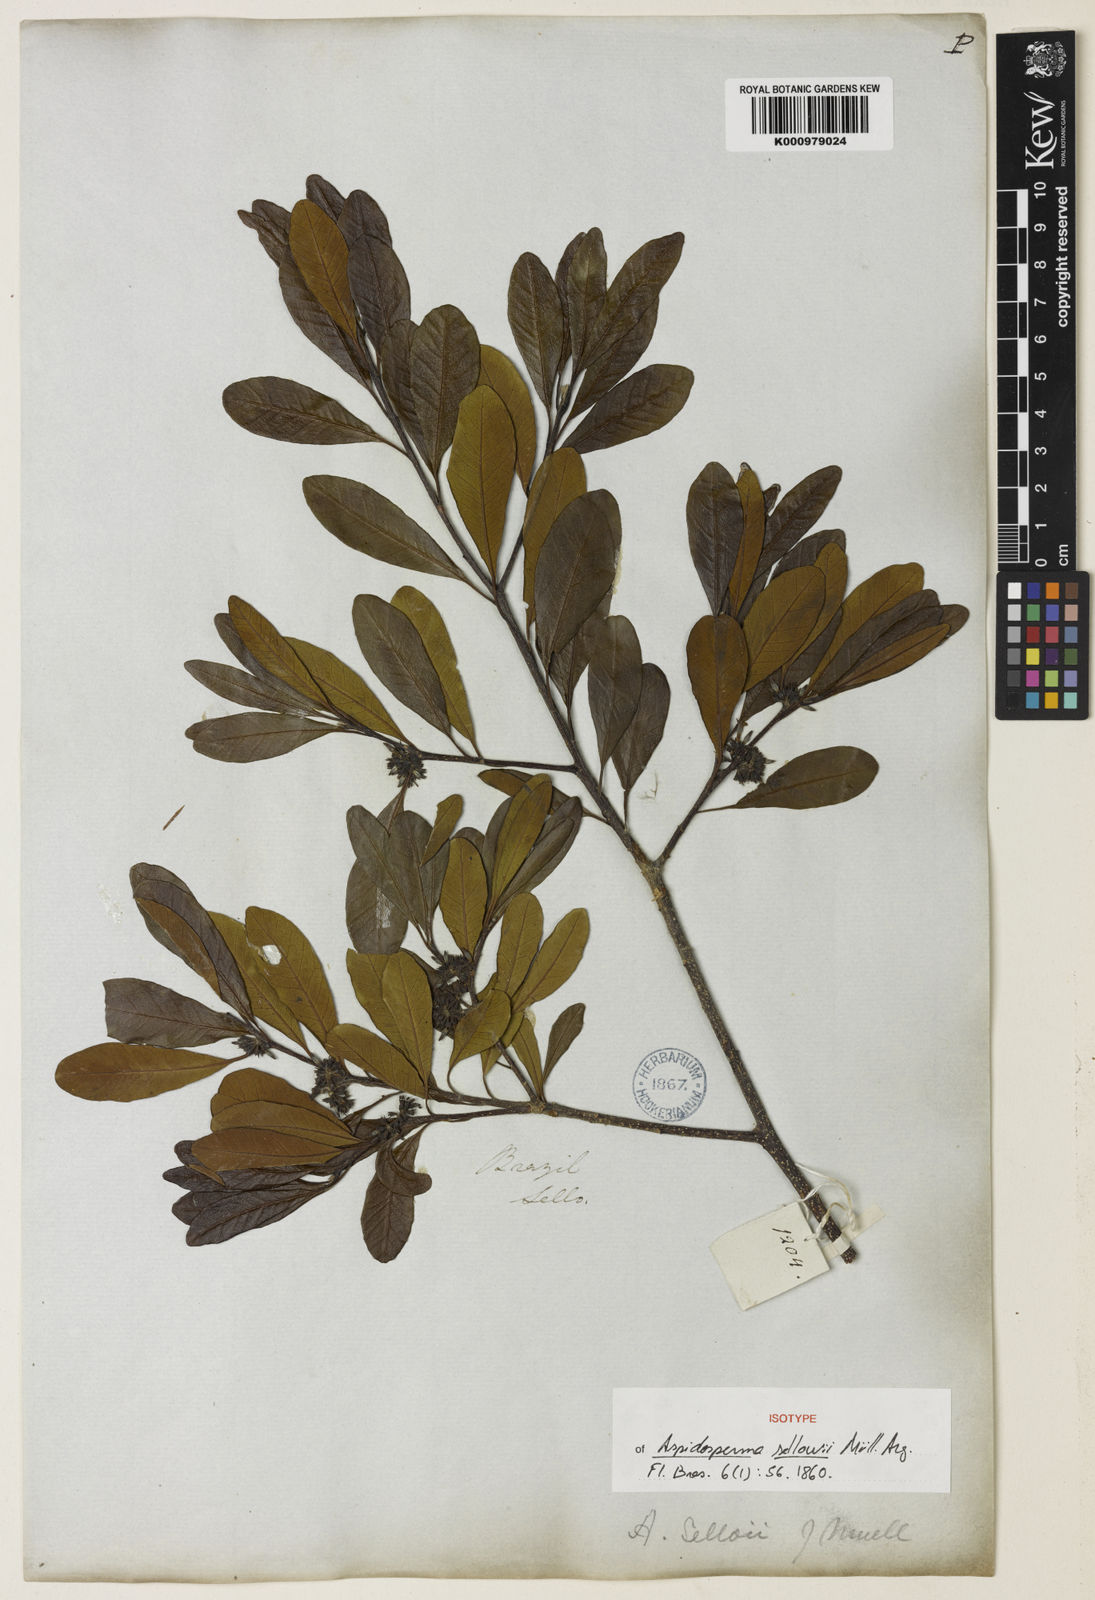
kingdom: Plantae
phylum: Tracheophyta
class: Magnoliopsida
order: Gentianales
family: Apocynaceae
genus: Aspidosperma
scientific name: Aspidosperma
